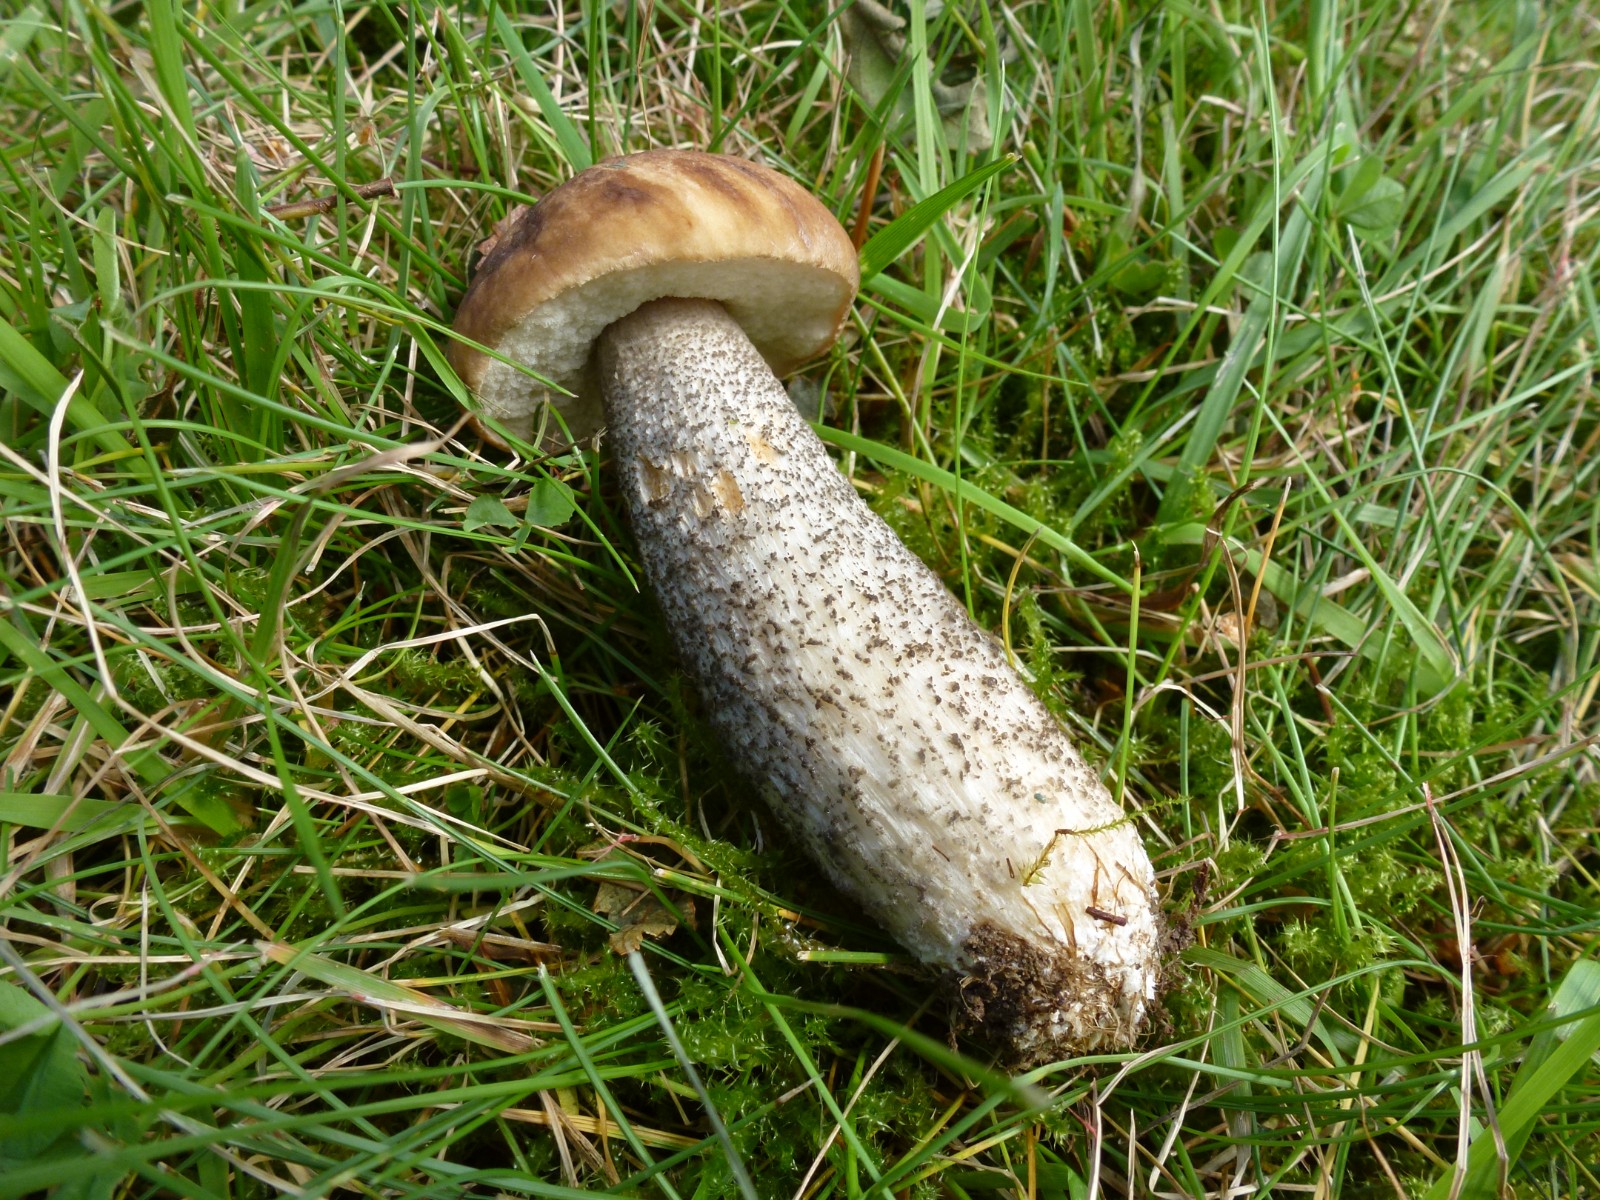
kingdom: Fungi
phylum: Basidiomycota
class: Agaricomycetes
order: Boletales
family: Boletaceae
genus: Leccinum
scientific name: Leccinum scabrum
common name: brun skælrørhat
